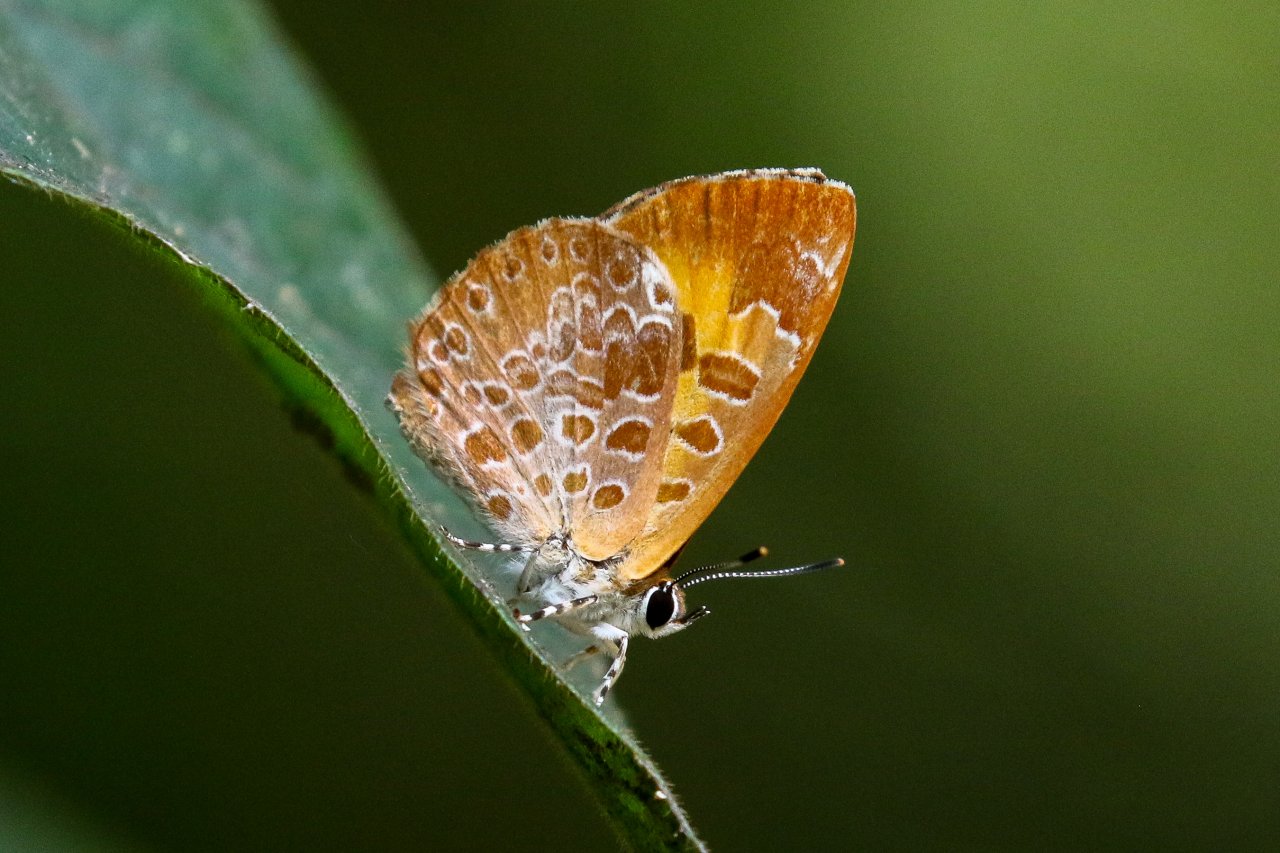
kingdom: Animalia
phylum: Arthropoda
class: Insecta
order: Lepidoptera
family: Lycaenidae
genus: Feniseca
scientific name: Feniseca tarquinius
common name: Harvester
